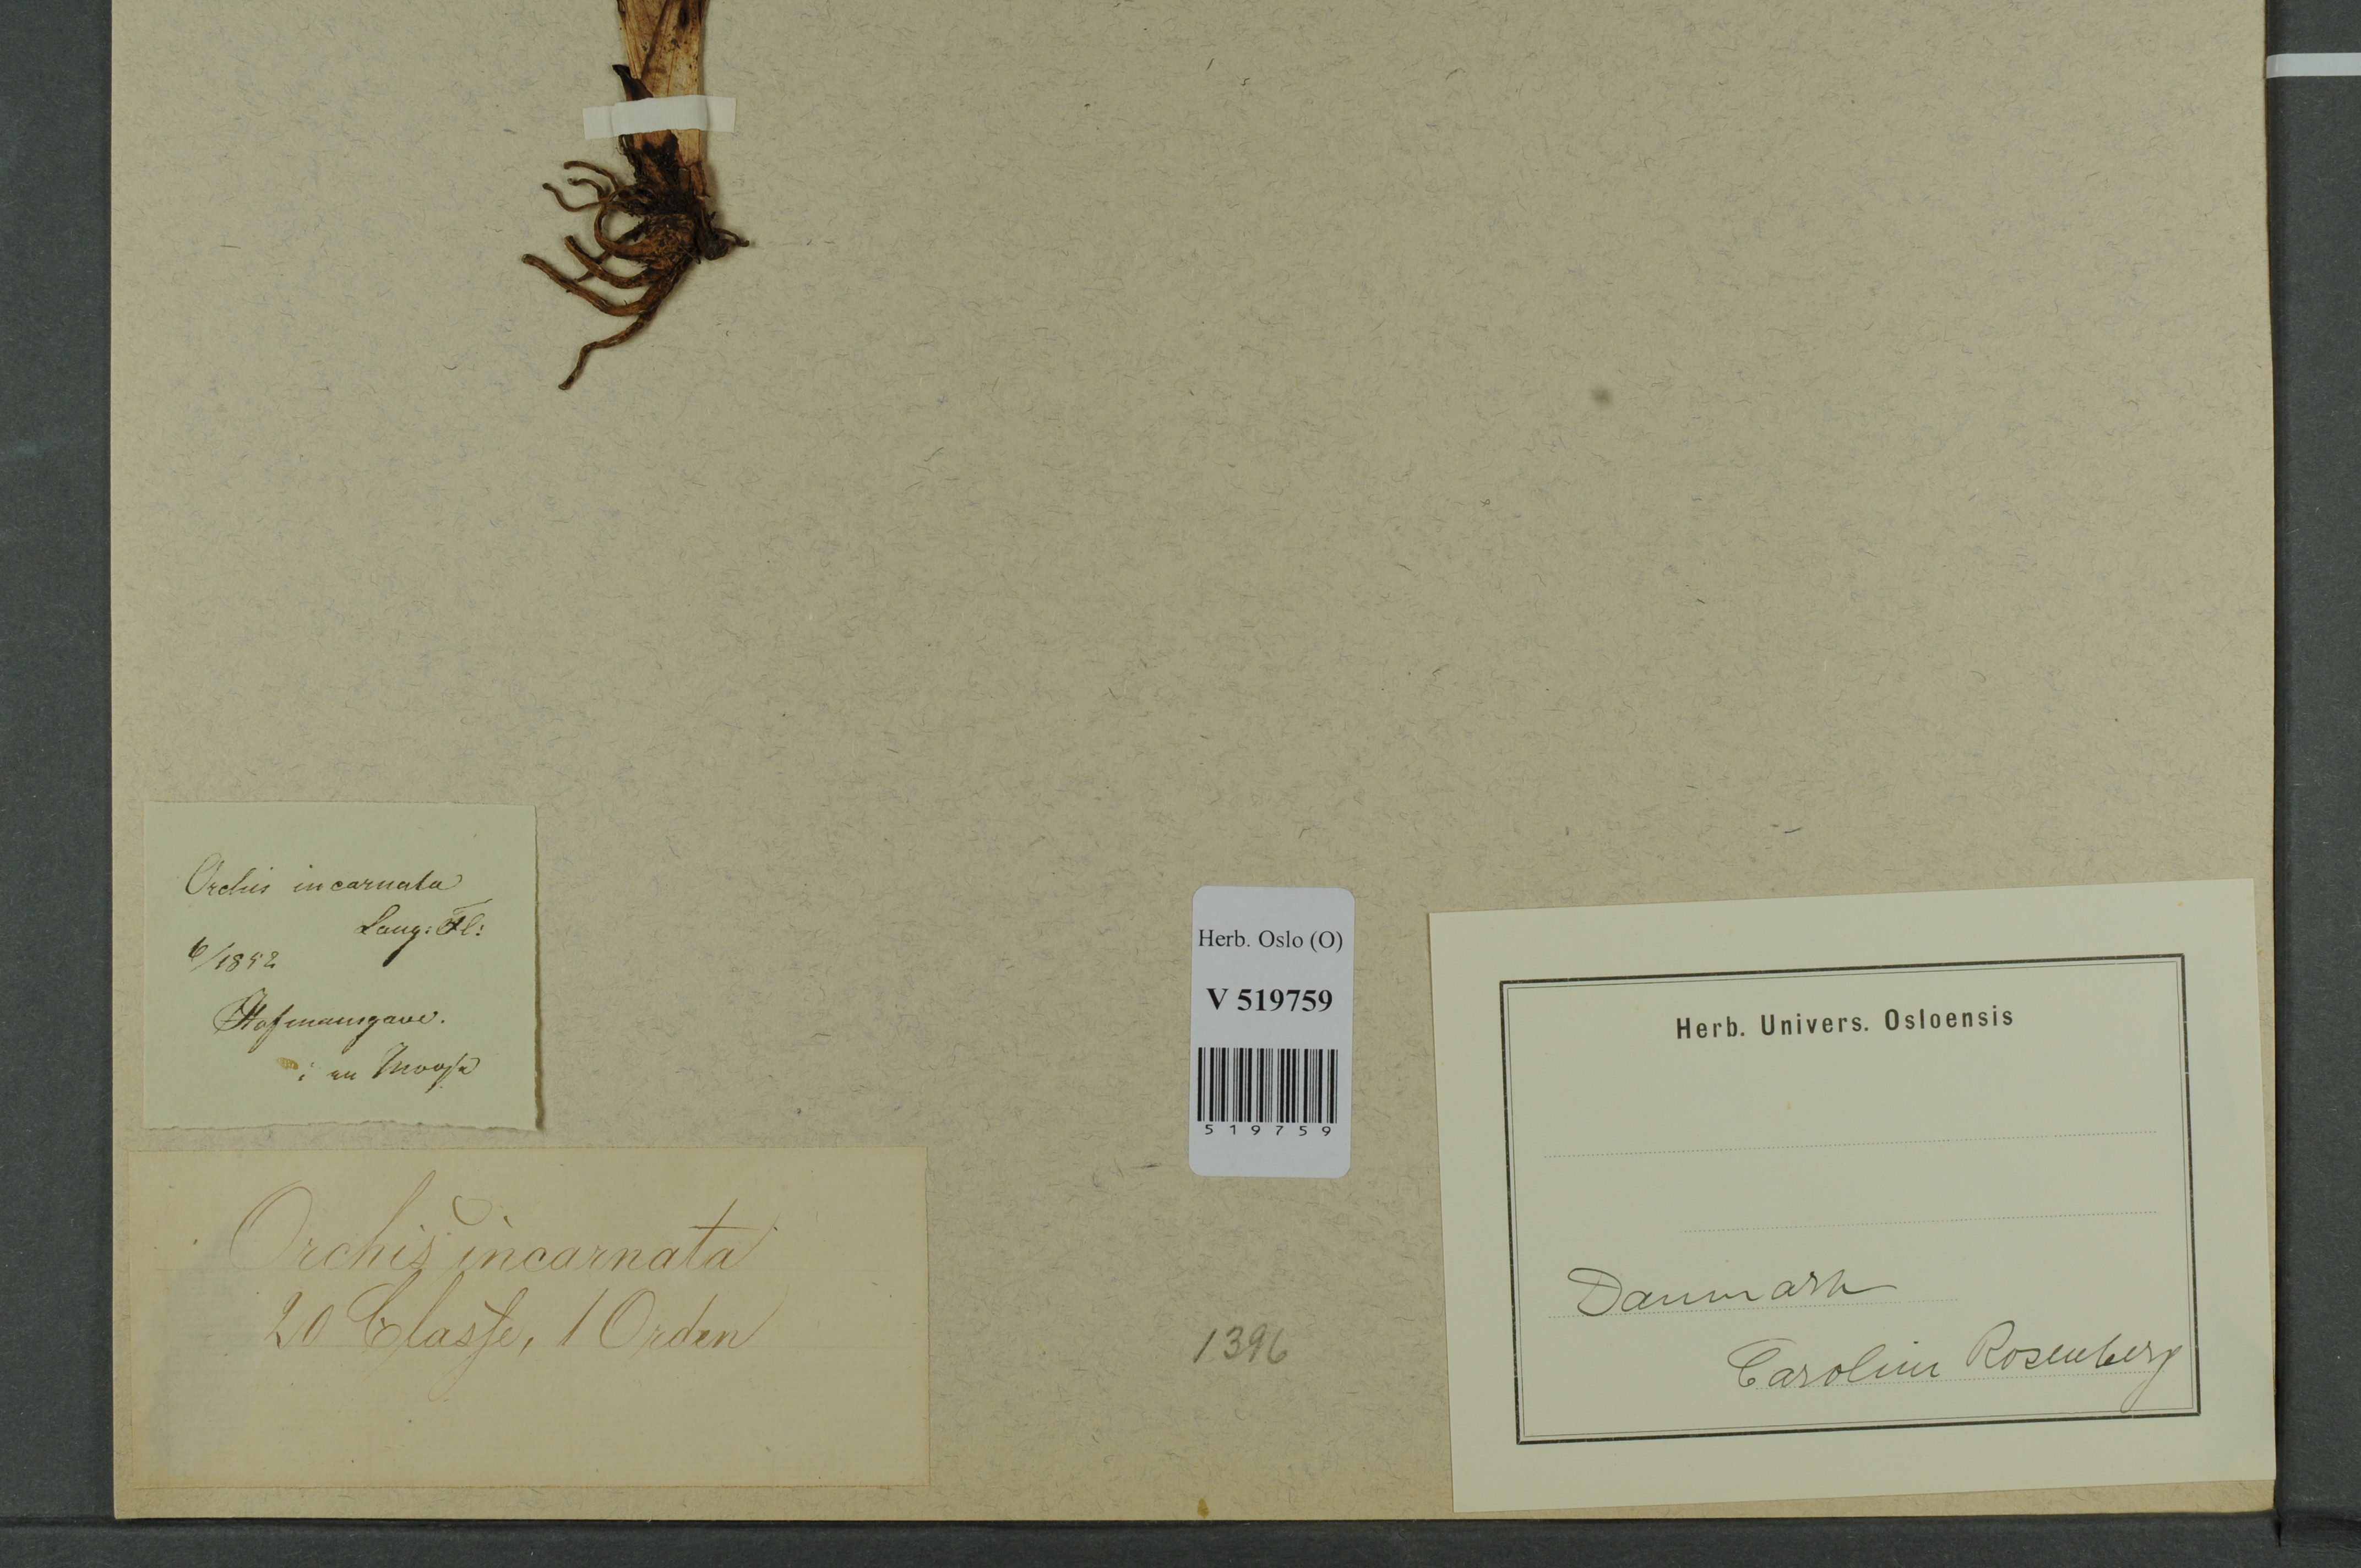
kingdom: Plantae
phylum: Tracheophyta
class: Liliopsida
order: Asparagales
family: Orchidaceae
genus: Dactylorhiza
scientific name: Dactylorhiza incarnata
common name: Early marsh-orchid
